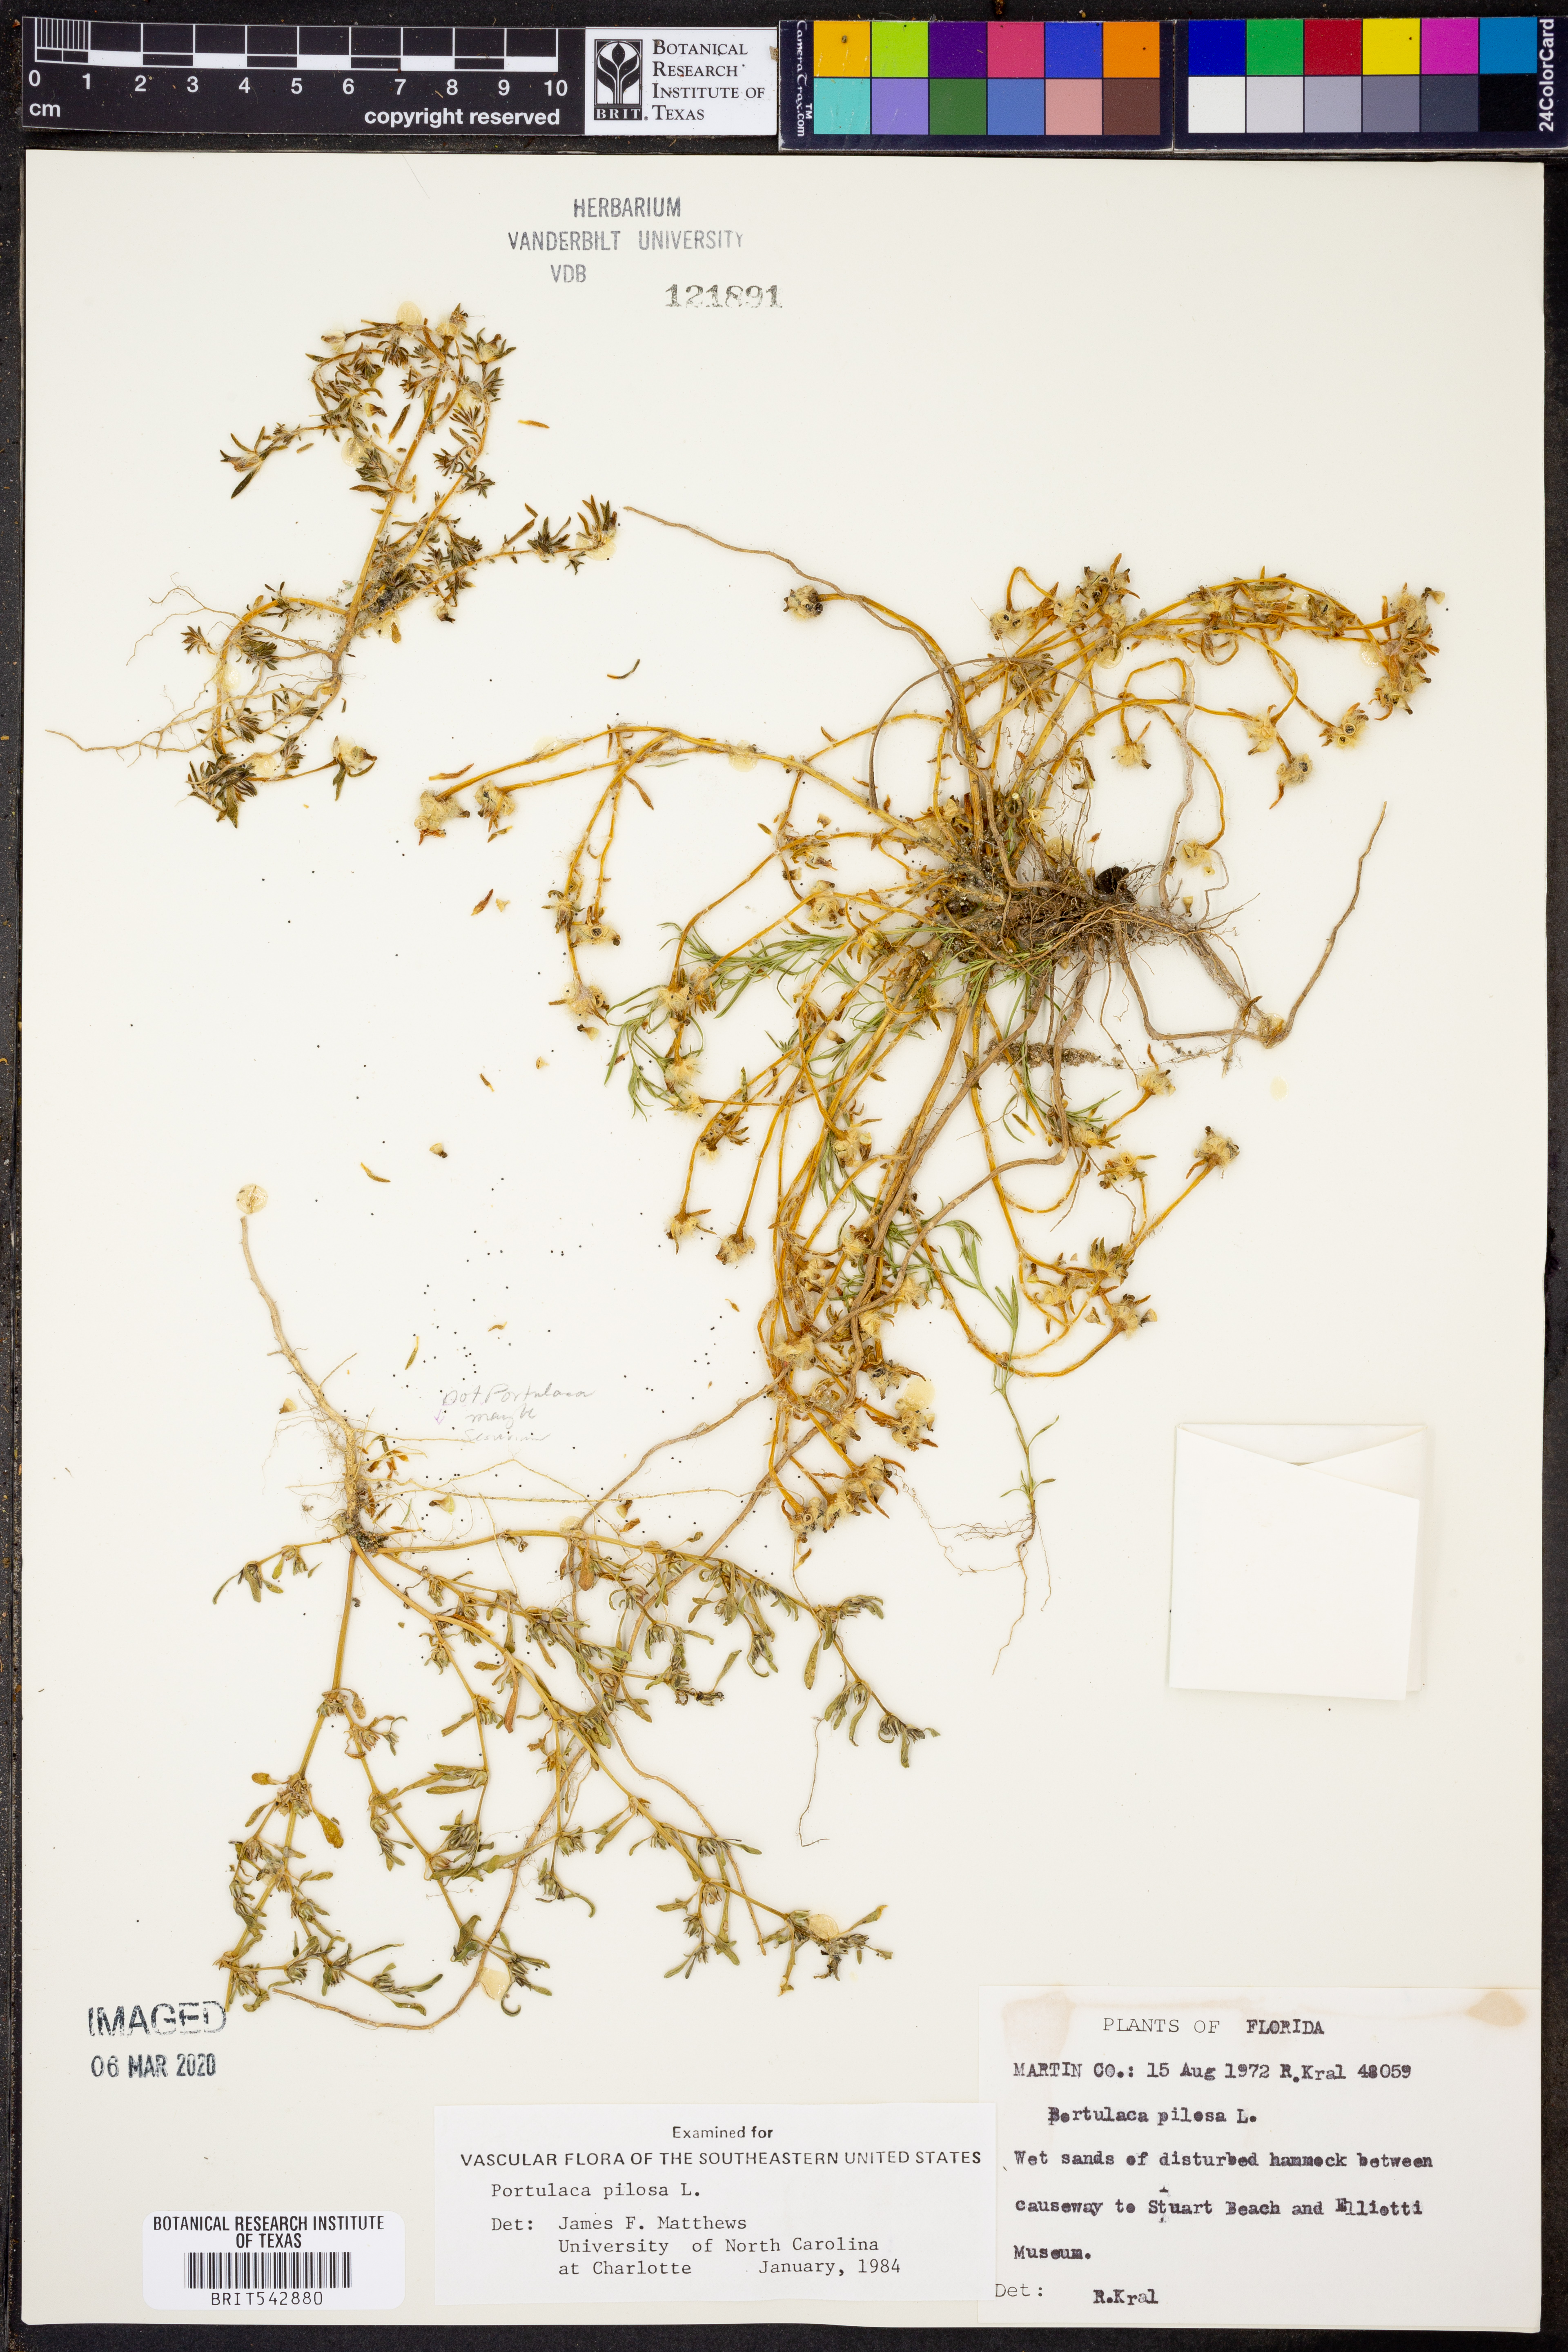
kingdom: Plantae
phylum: Tracheophyta
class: Magnoliopsida
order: Caryophyllales
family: Portulacaceae
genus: Portulaca
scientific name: Portulaca pilosa
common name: Kiss me quick
